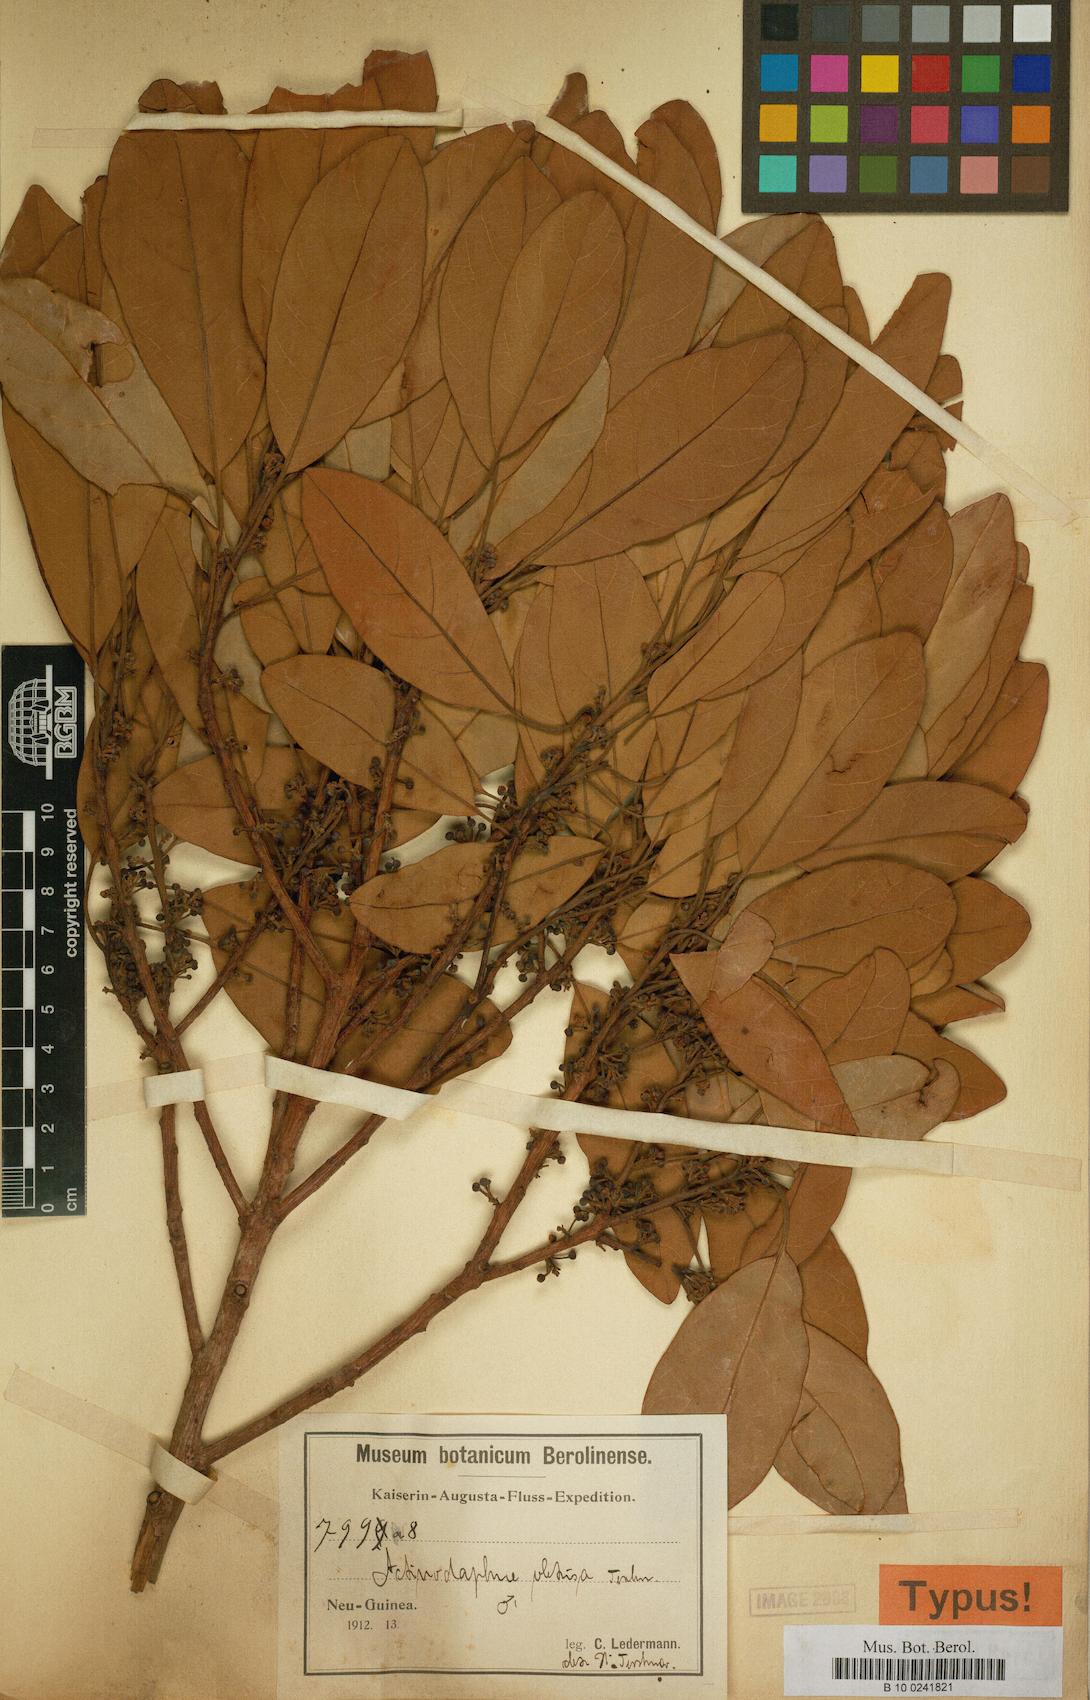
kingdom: Plantae
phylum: Tracheophyta
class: Magnoliopsida
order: Laurales
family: Lauraceae
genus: Actinodaphne
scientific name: Actinodaphne nitida
